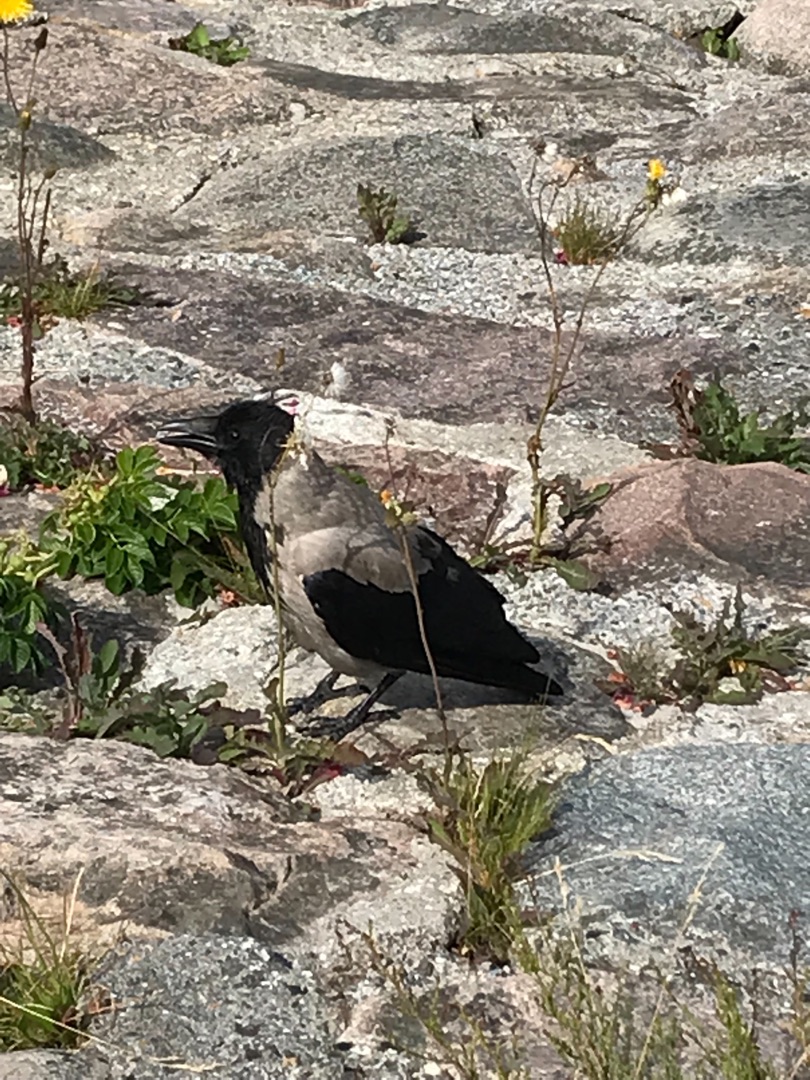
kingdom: Animalia
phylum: Chordata
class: Aves
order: Passeriformes
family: Corvidae
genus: Corvus
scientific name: Corvus cornix
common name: Gråkrage
